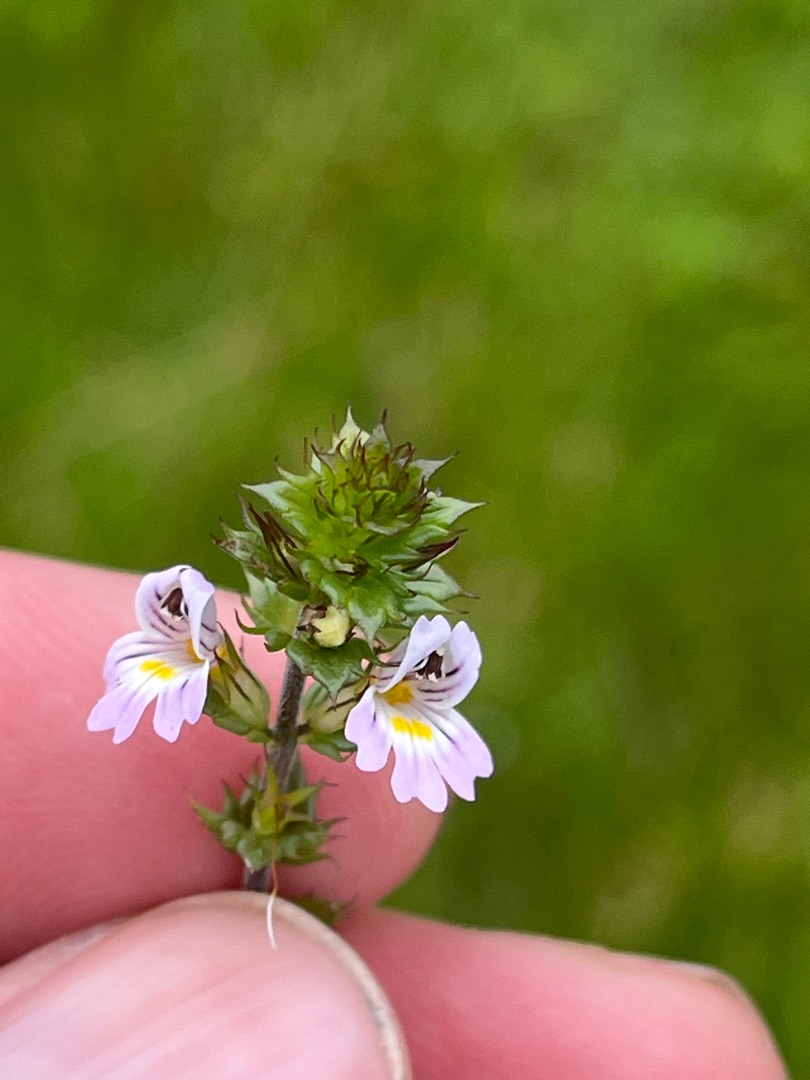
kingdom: Plantae
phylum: Tracheophyta
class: Magnoliopsida
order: Lamiales
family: Orobanchaceae
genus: Euphrasia
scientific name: Euphrasia stricta
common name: Spids øjentrøst
